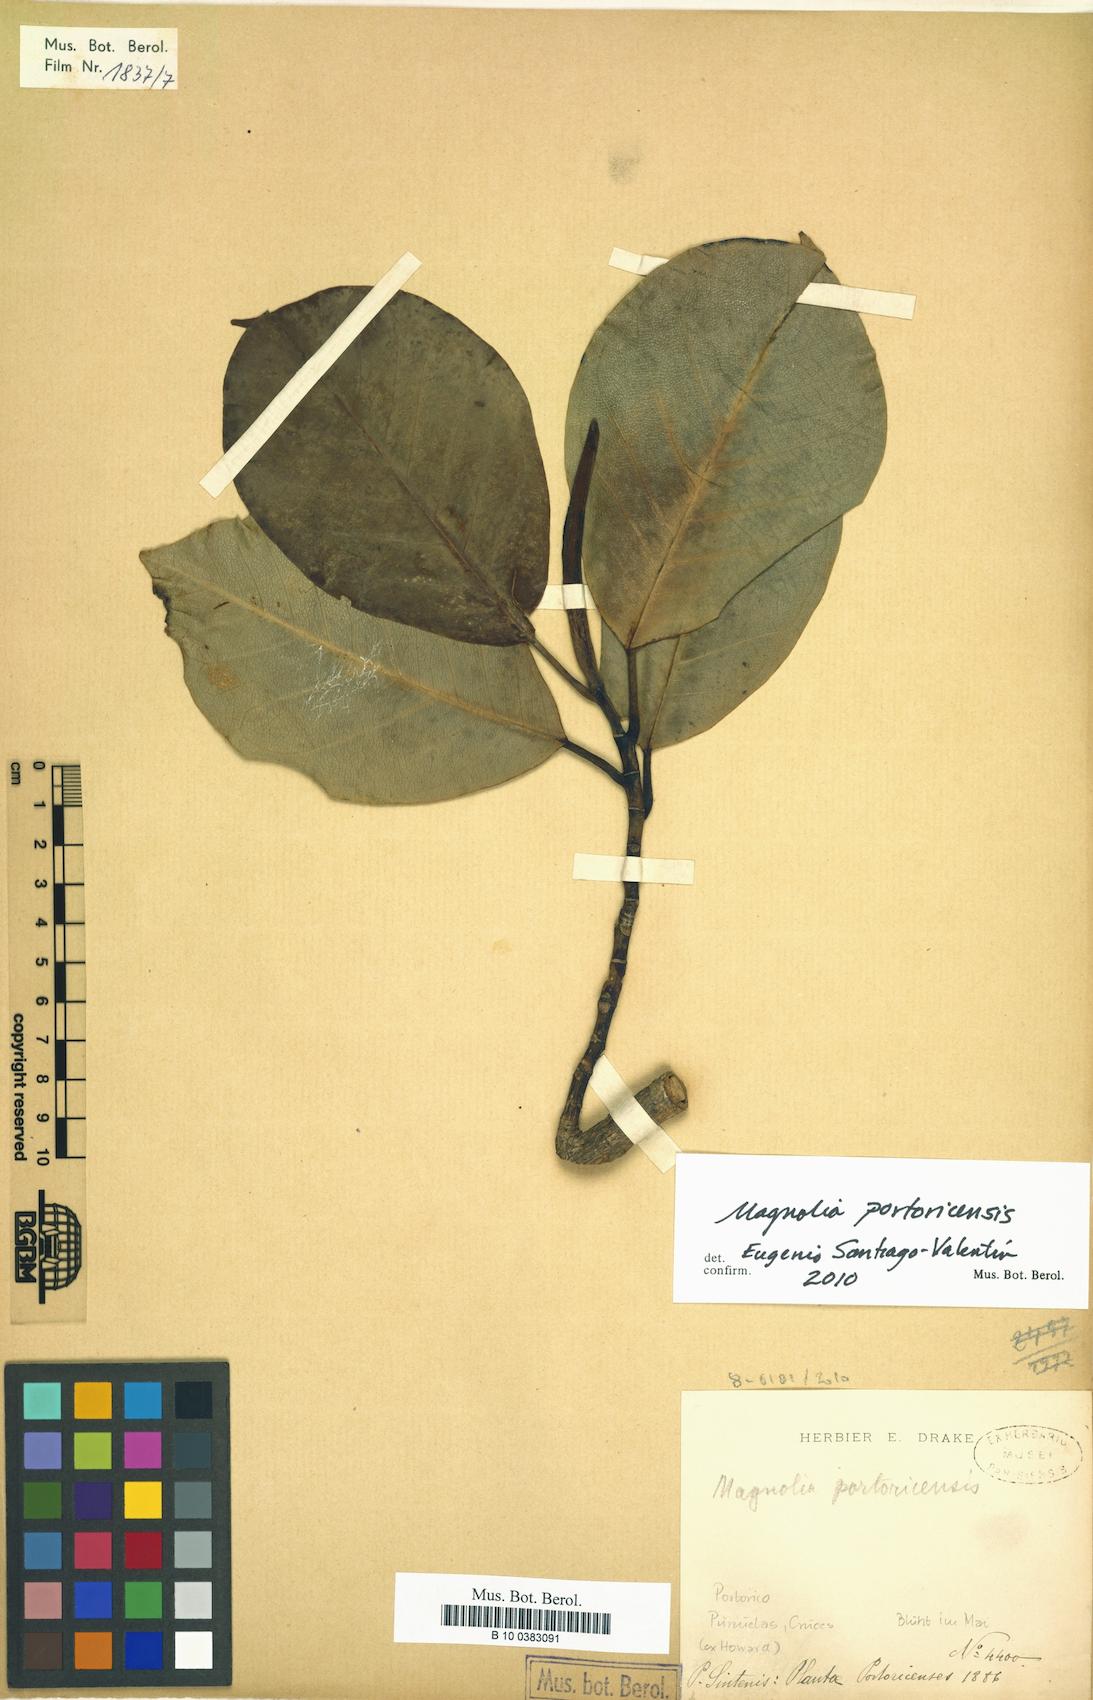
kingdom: Plantae
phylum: Tracheophyta
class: Magnoliopsida
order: Magnoliales
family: Magnoliaceae
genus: Magnolia
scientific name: Magnolia portoricensis
